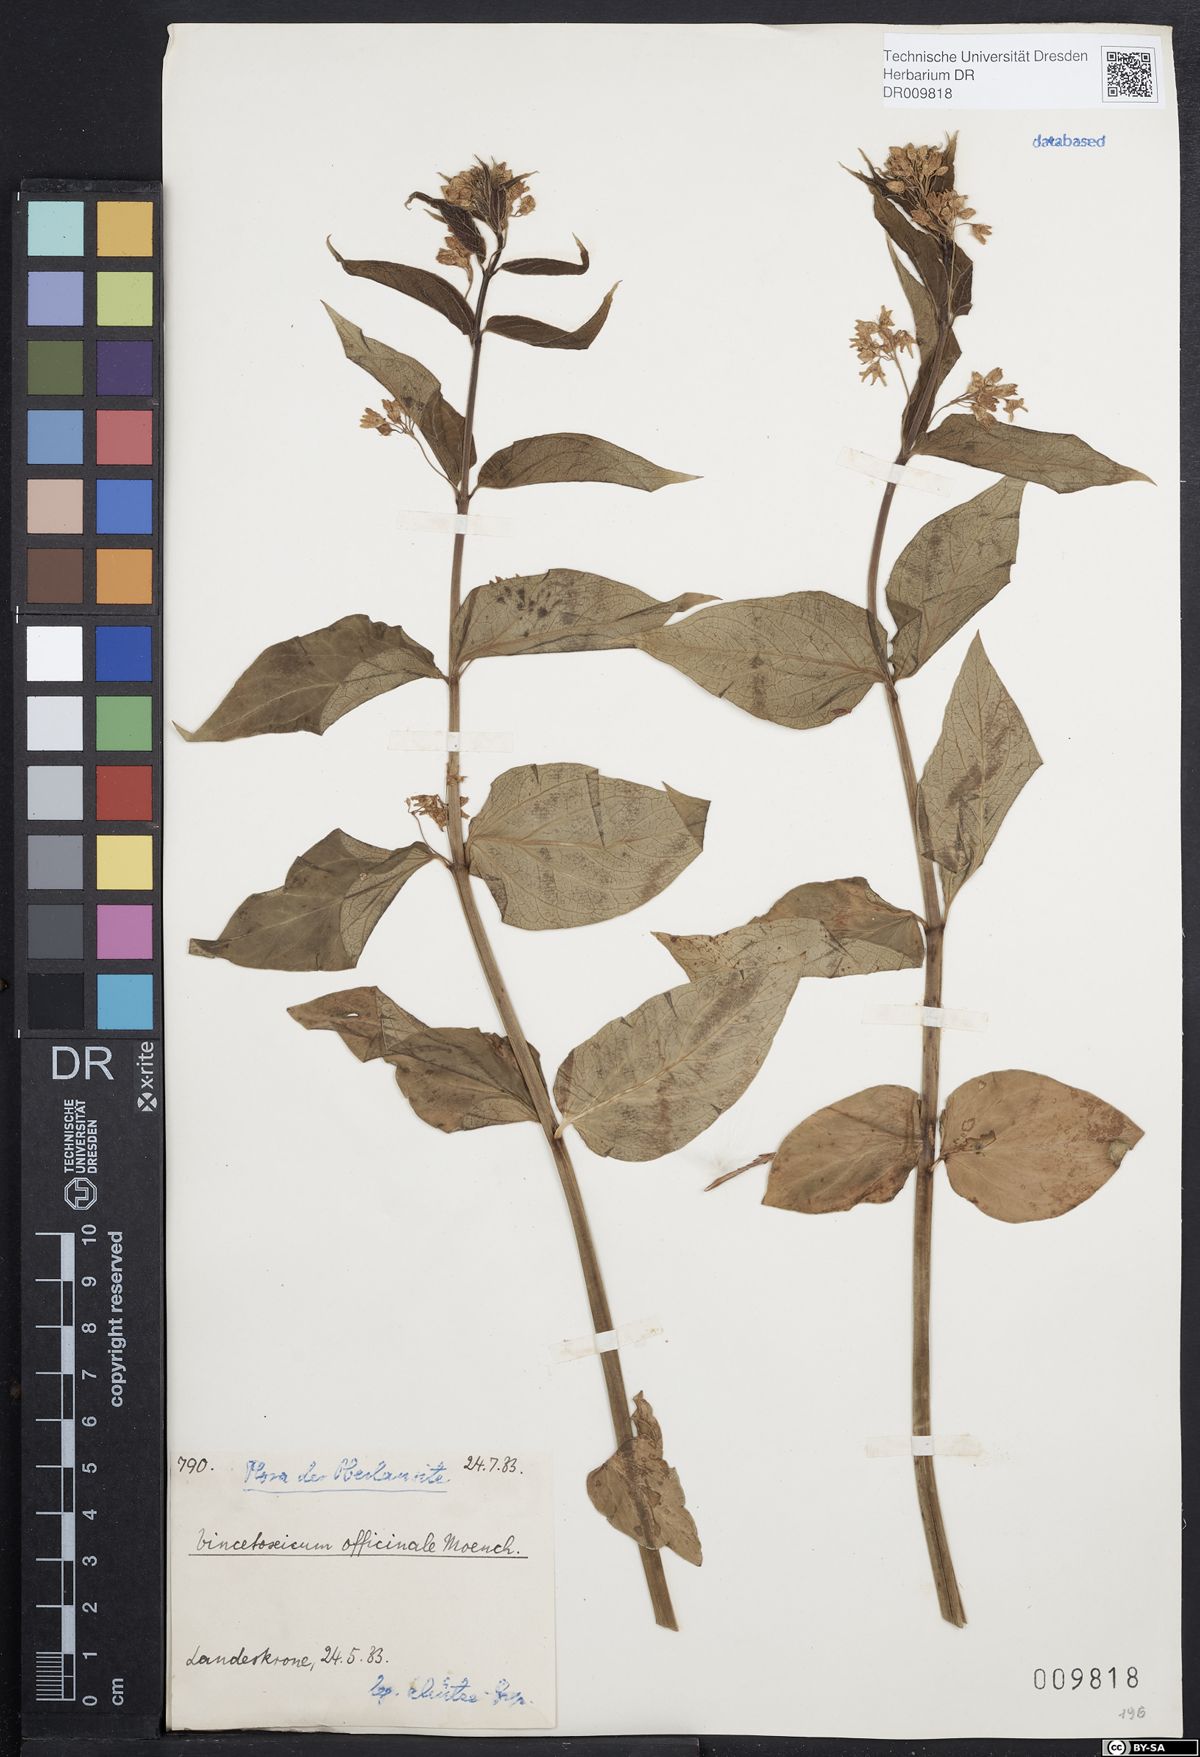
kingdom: Plantae
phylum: Tracheophyta
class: Magnoliopsida
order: Gentianales
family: Apocynaceae
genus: Vincetoxicum
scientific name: Vincetoxicum hirundinaria
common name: White swallowwort
